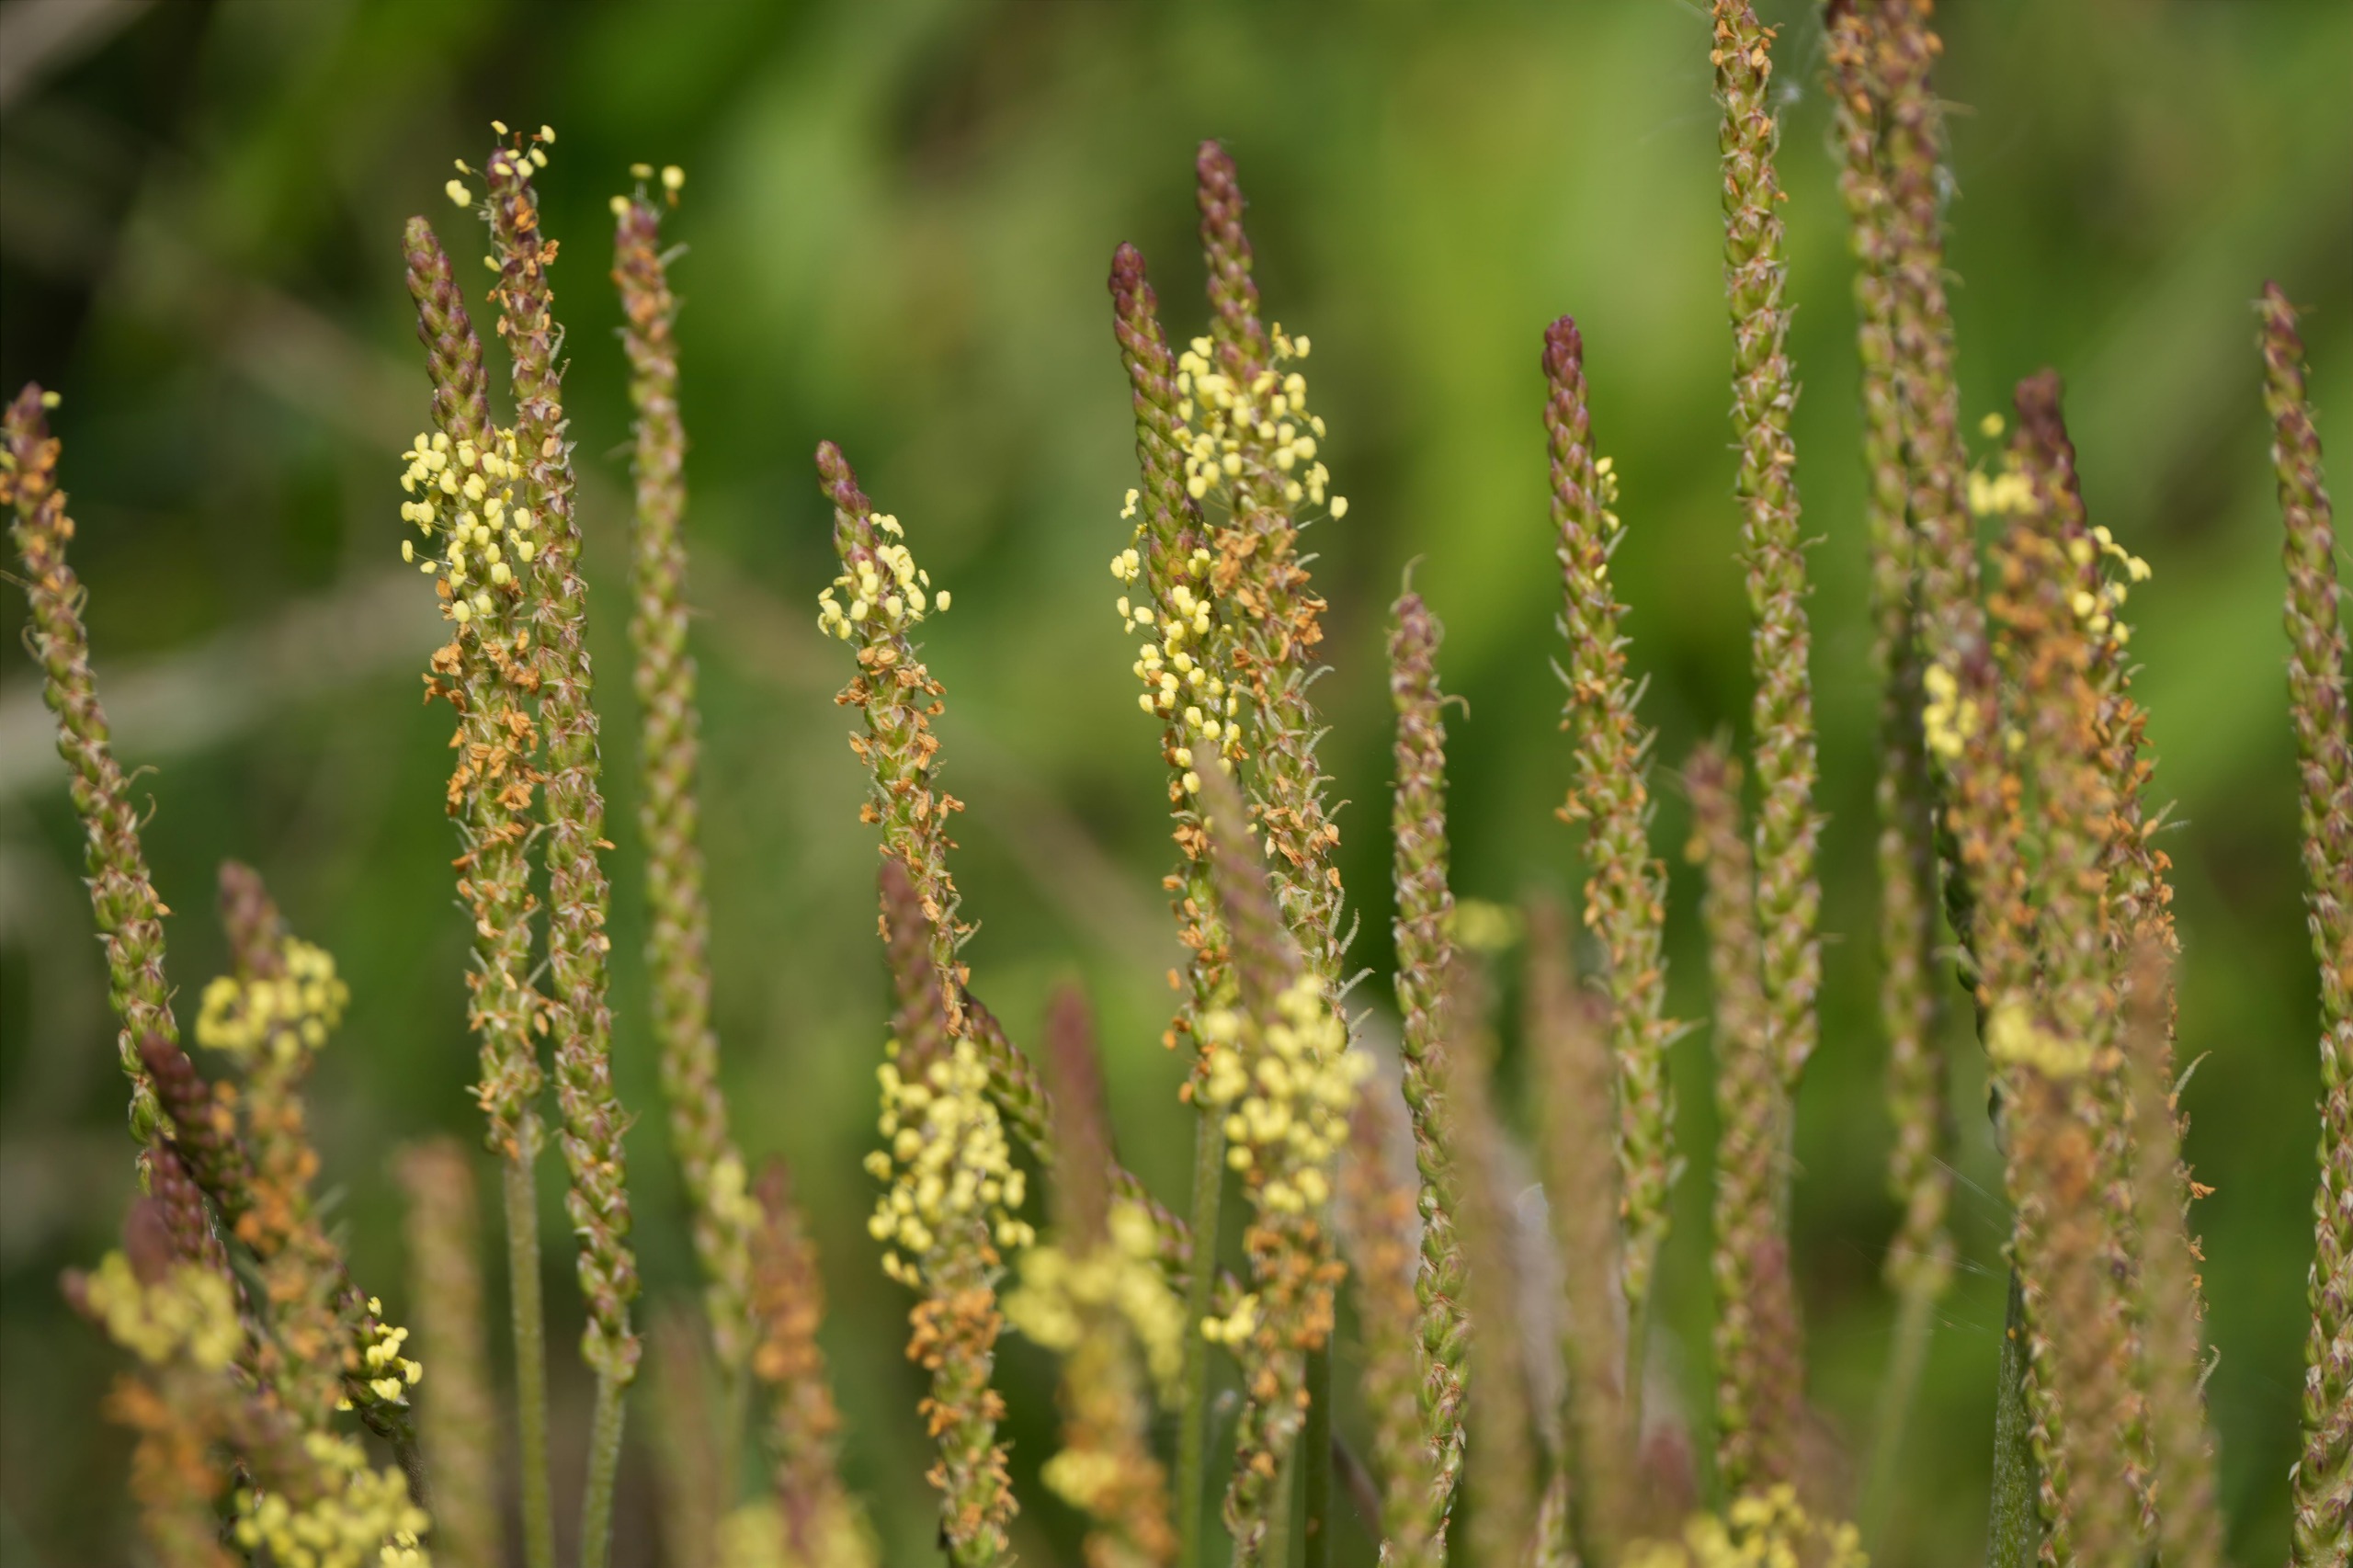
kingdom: Plantae
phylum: Tracheophyta
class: Magnoliopsida
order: Lamiales
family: Plantaginaceae
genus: Plantago
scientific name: Plantago maritima
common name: Strand-vejbred
